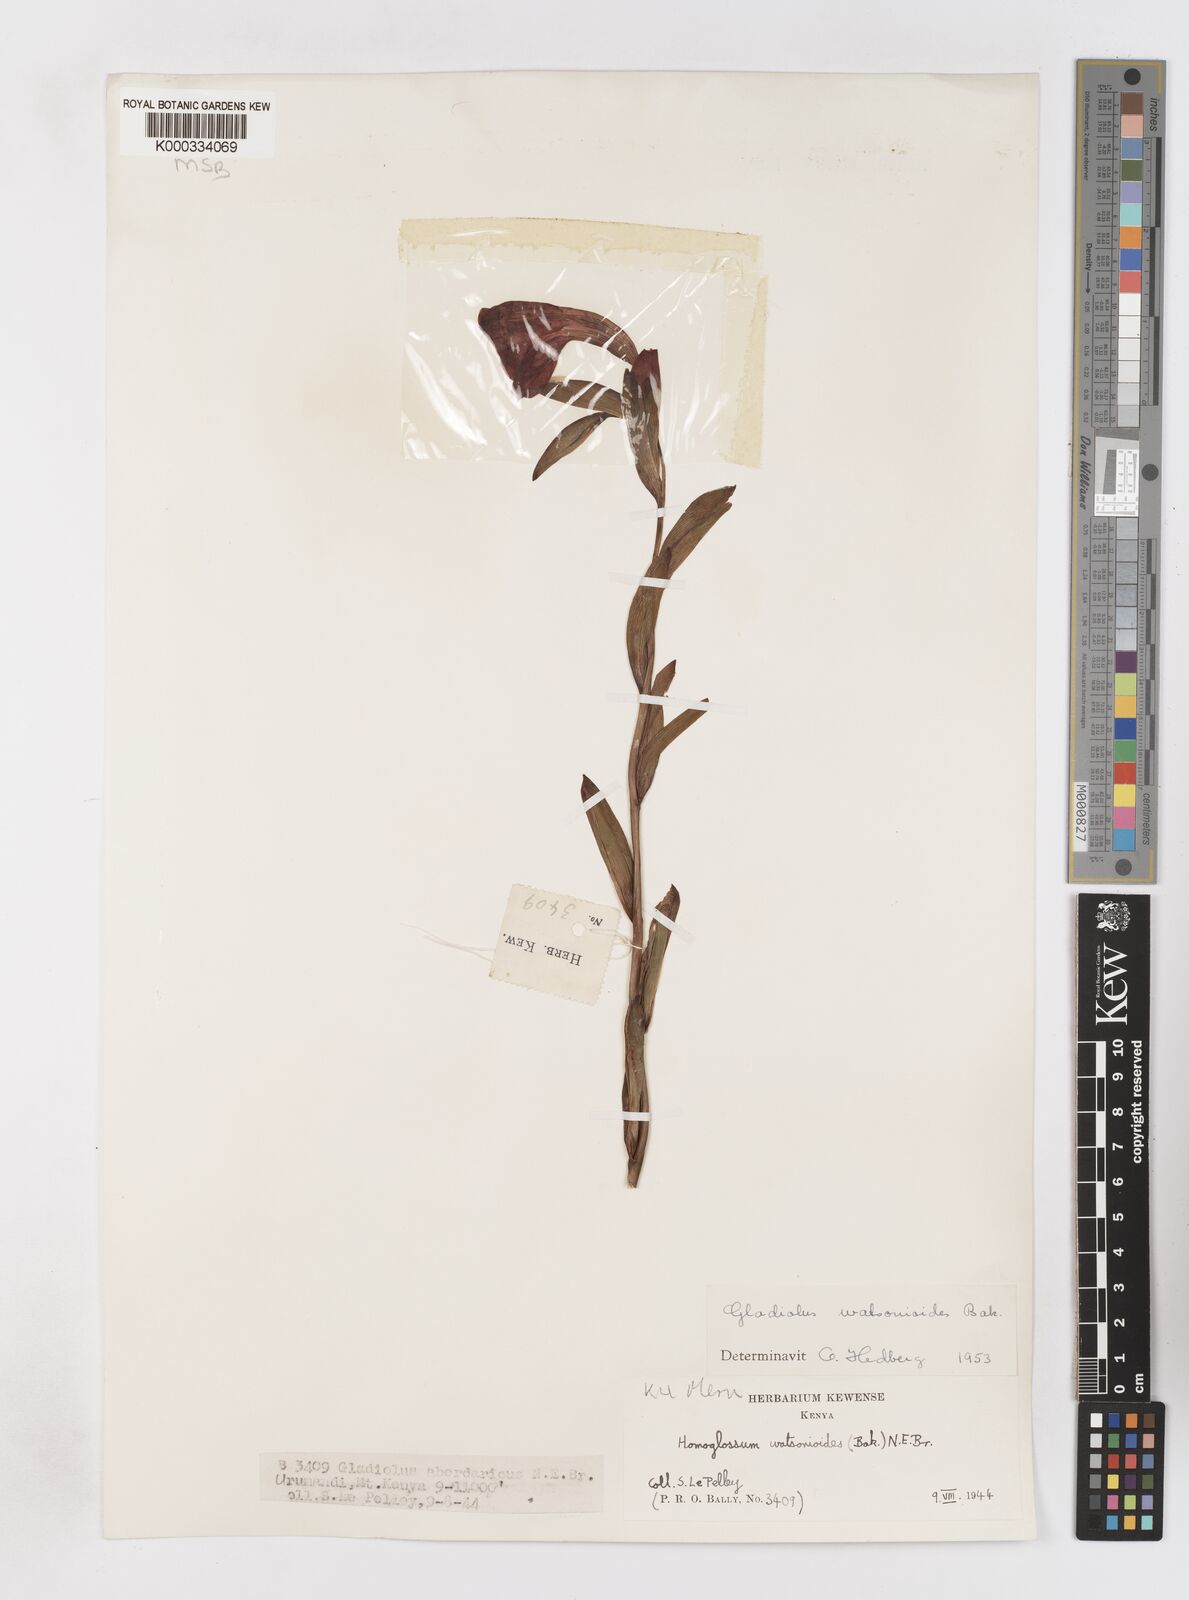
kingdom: Plantae
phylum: Tracheophyta
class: Liliopsida
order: Asparagales
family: Iridaceae
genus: Gladiolus
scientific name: Gladiolus watsonioides
